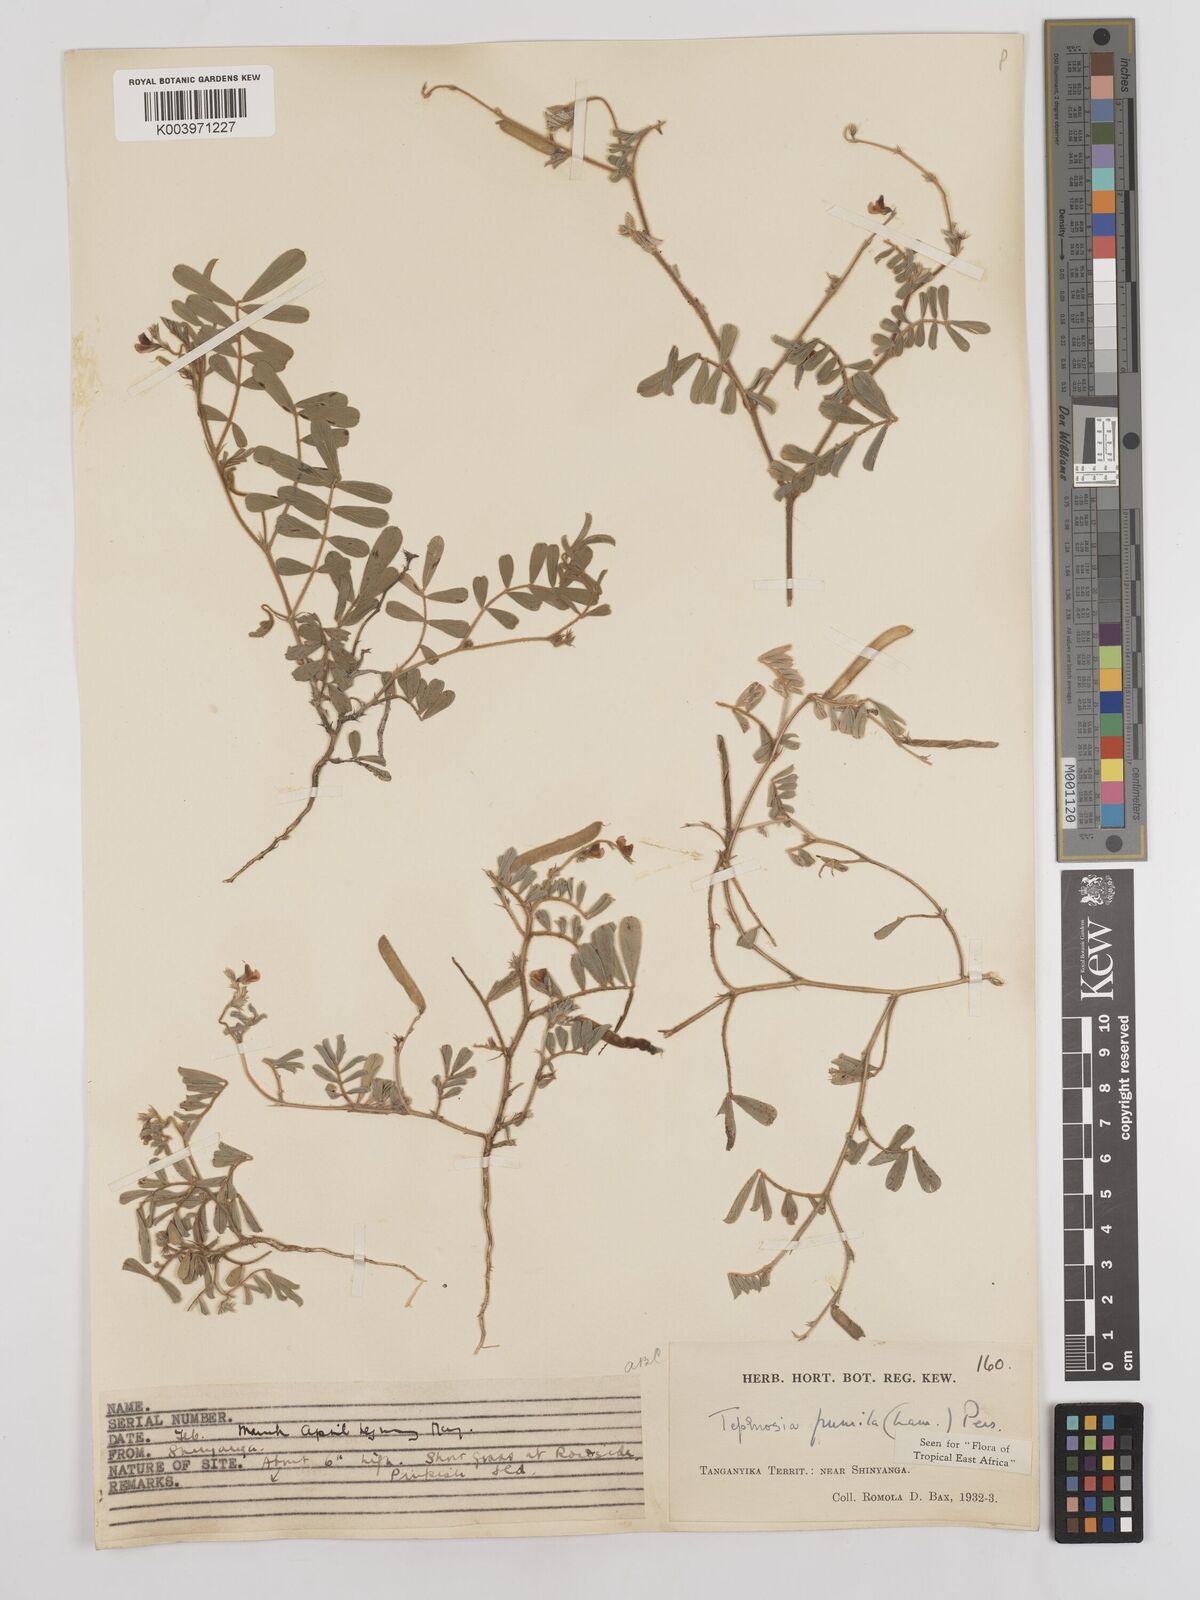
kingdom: Plantae
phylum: Tracheophyta
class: Magnoliopsida
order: Fabales
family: Fabaceae
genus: Tephrosia
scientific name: Tephrosia pumila
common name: Indigo sauvage
